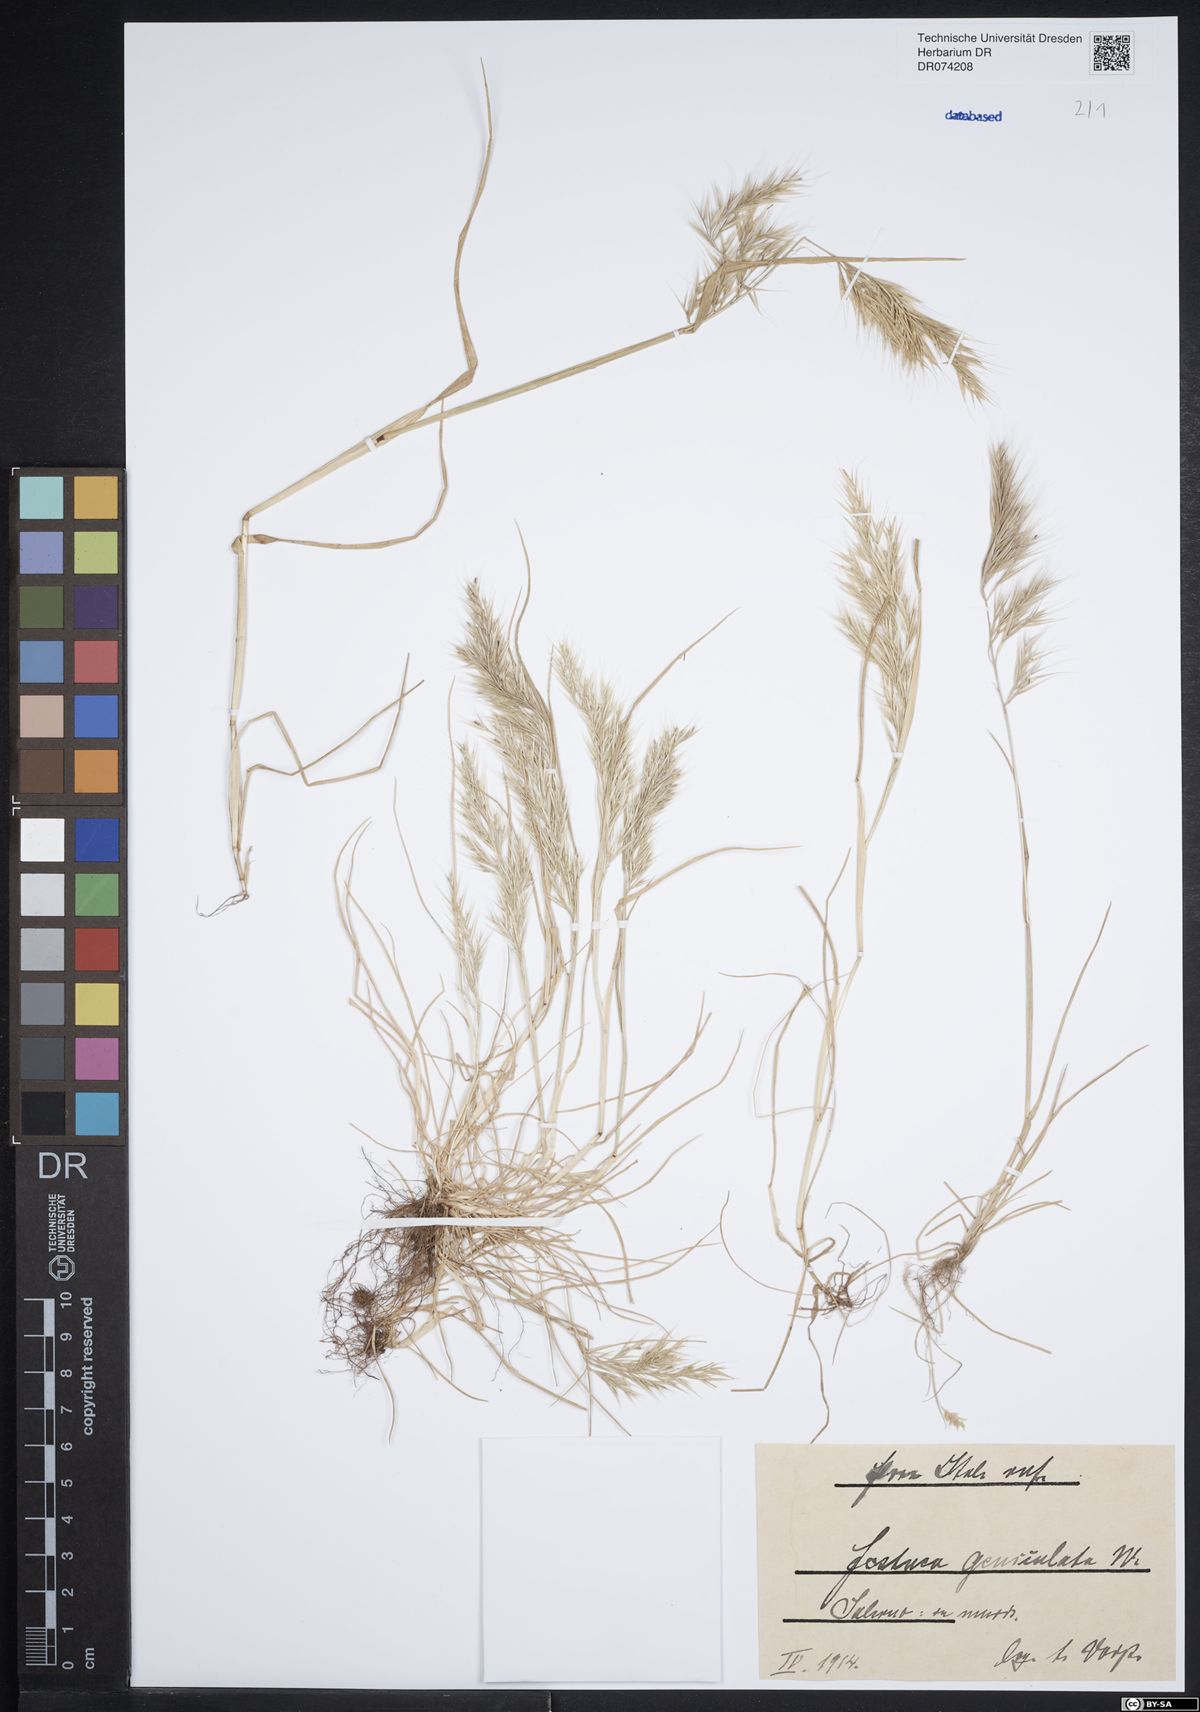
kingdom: Plantae
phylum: Tracheophyta
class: Liliopsida
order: Poales
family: Poaceae
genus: Festuca
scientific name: Festuca geniculata
